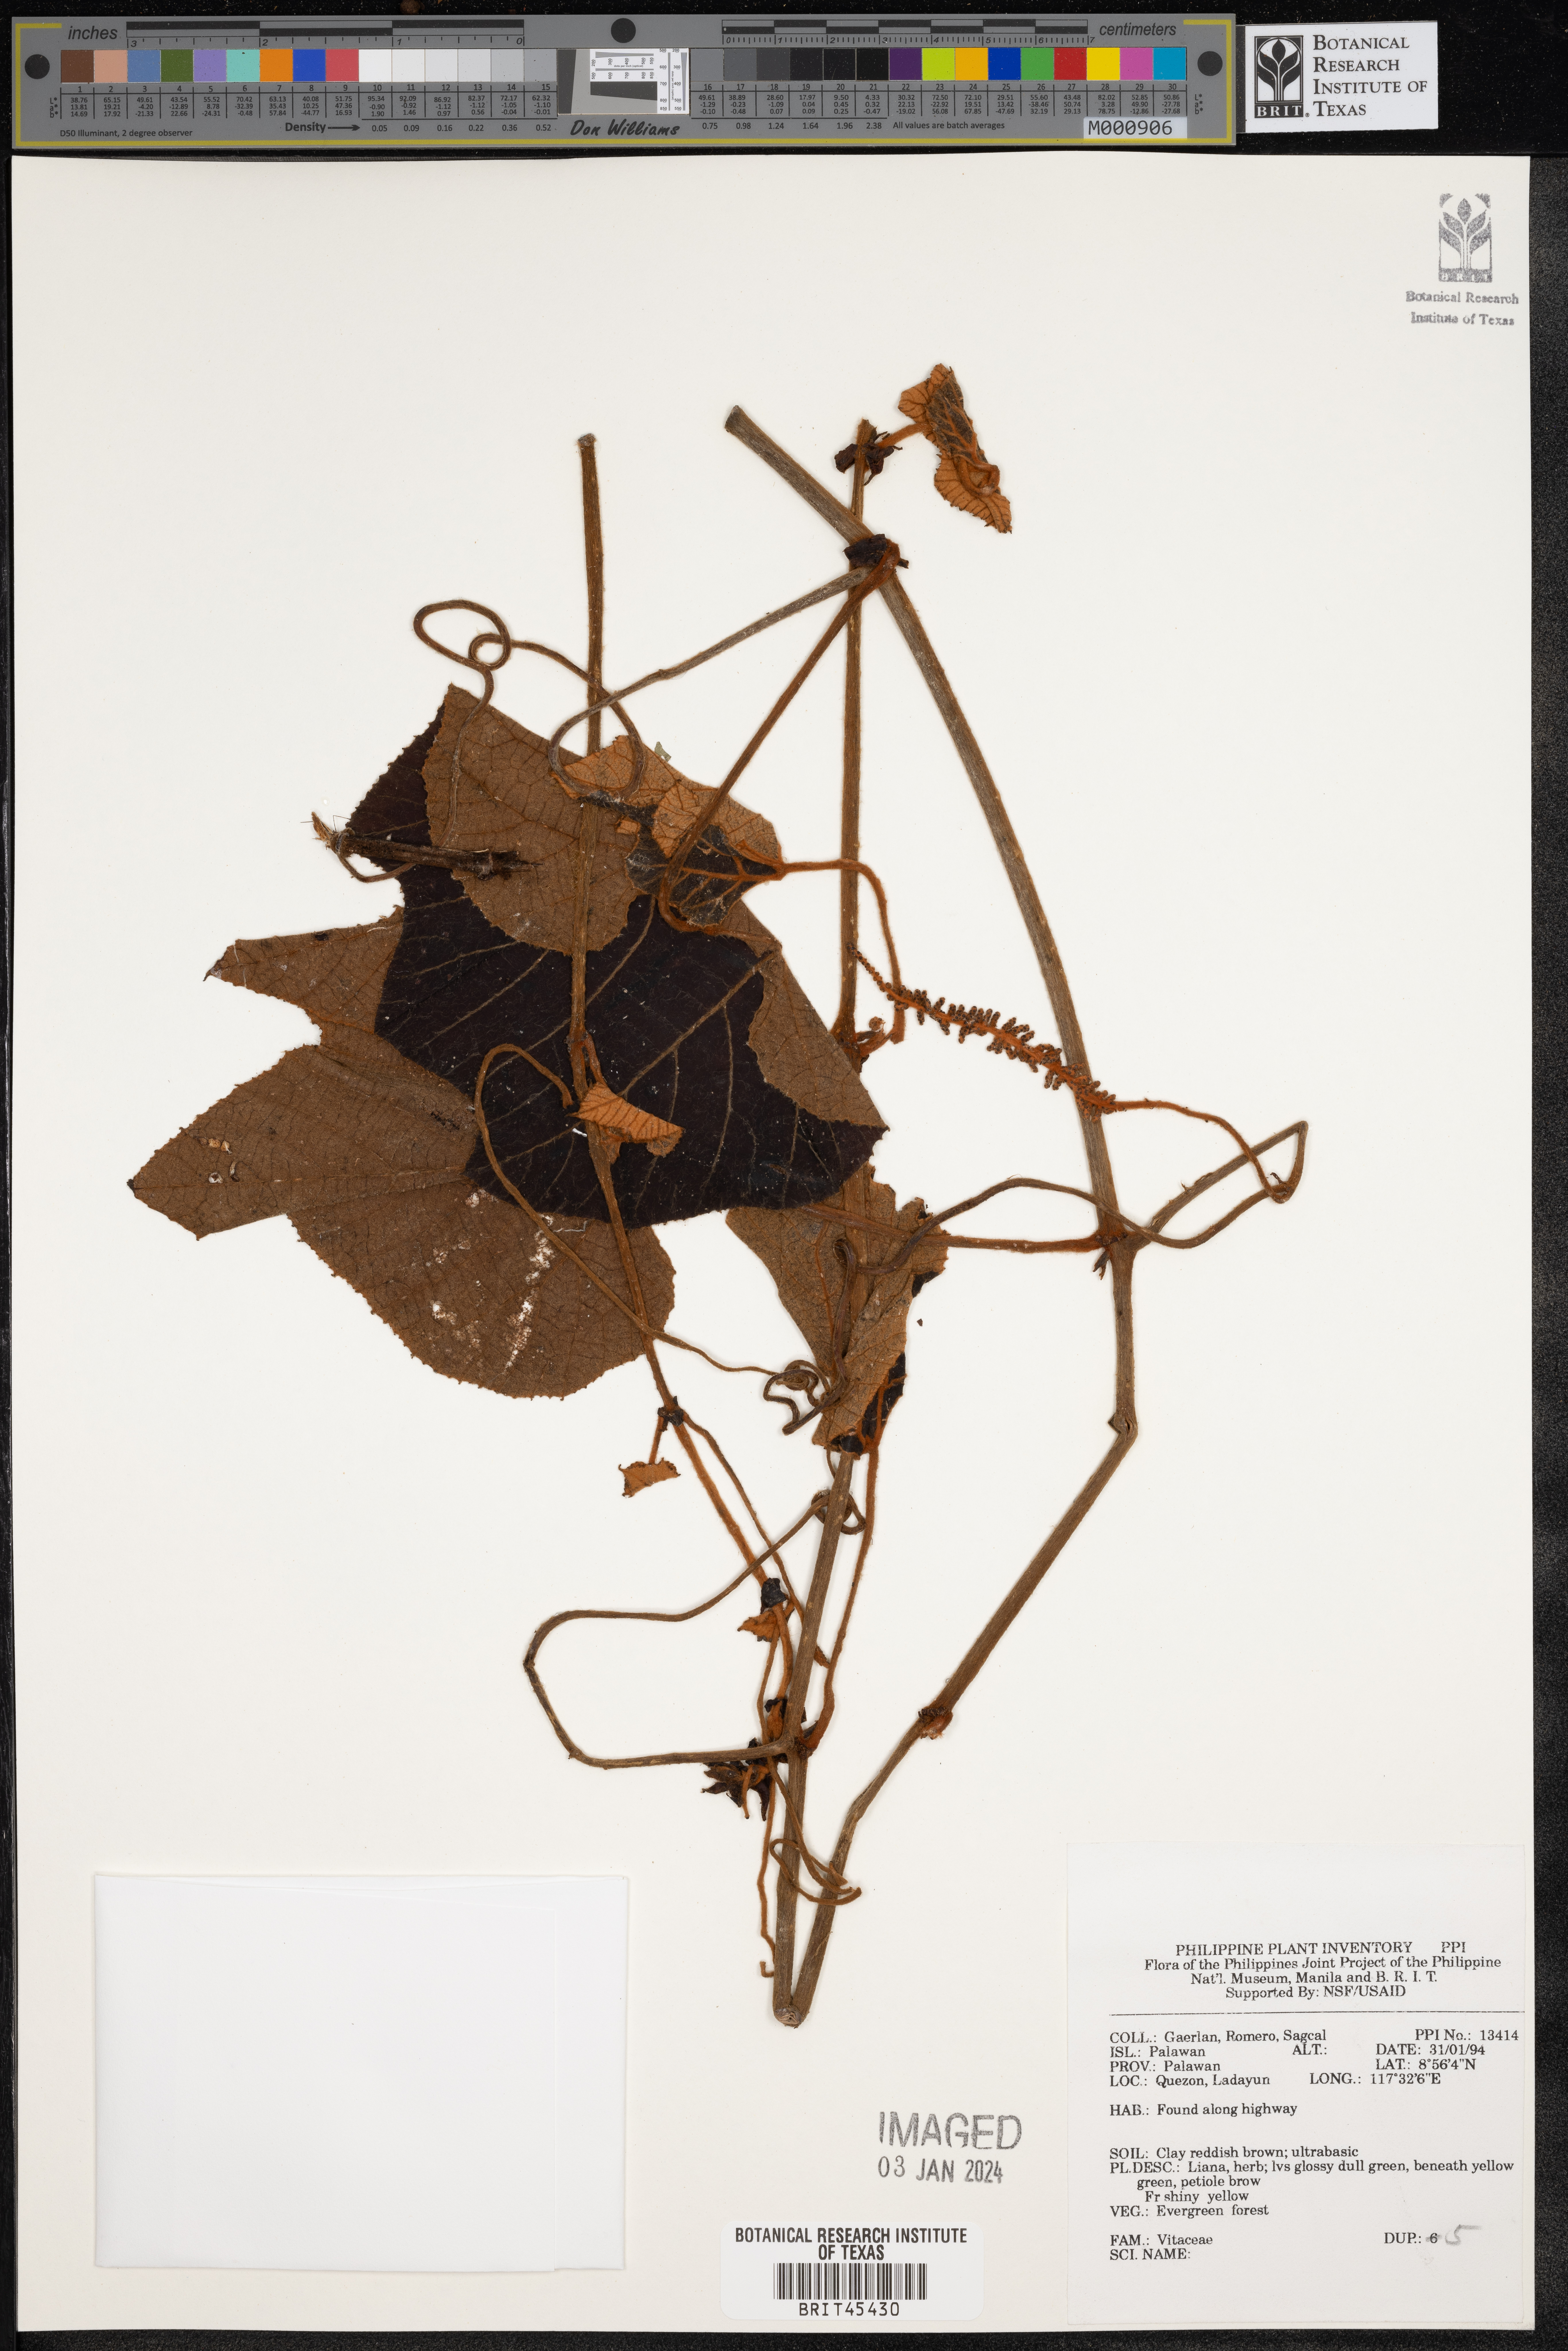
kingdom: Plantae
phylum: Tracheophyta
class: Magnoliopsida
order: Vitales
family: Vitaceae
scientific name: Vitaceae
